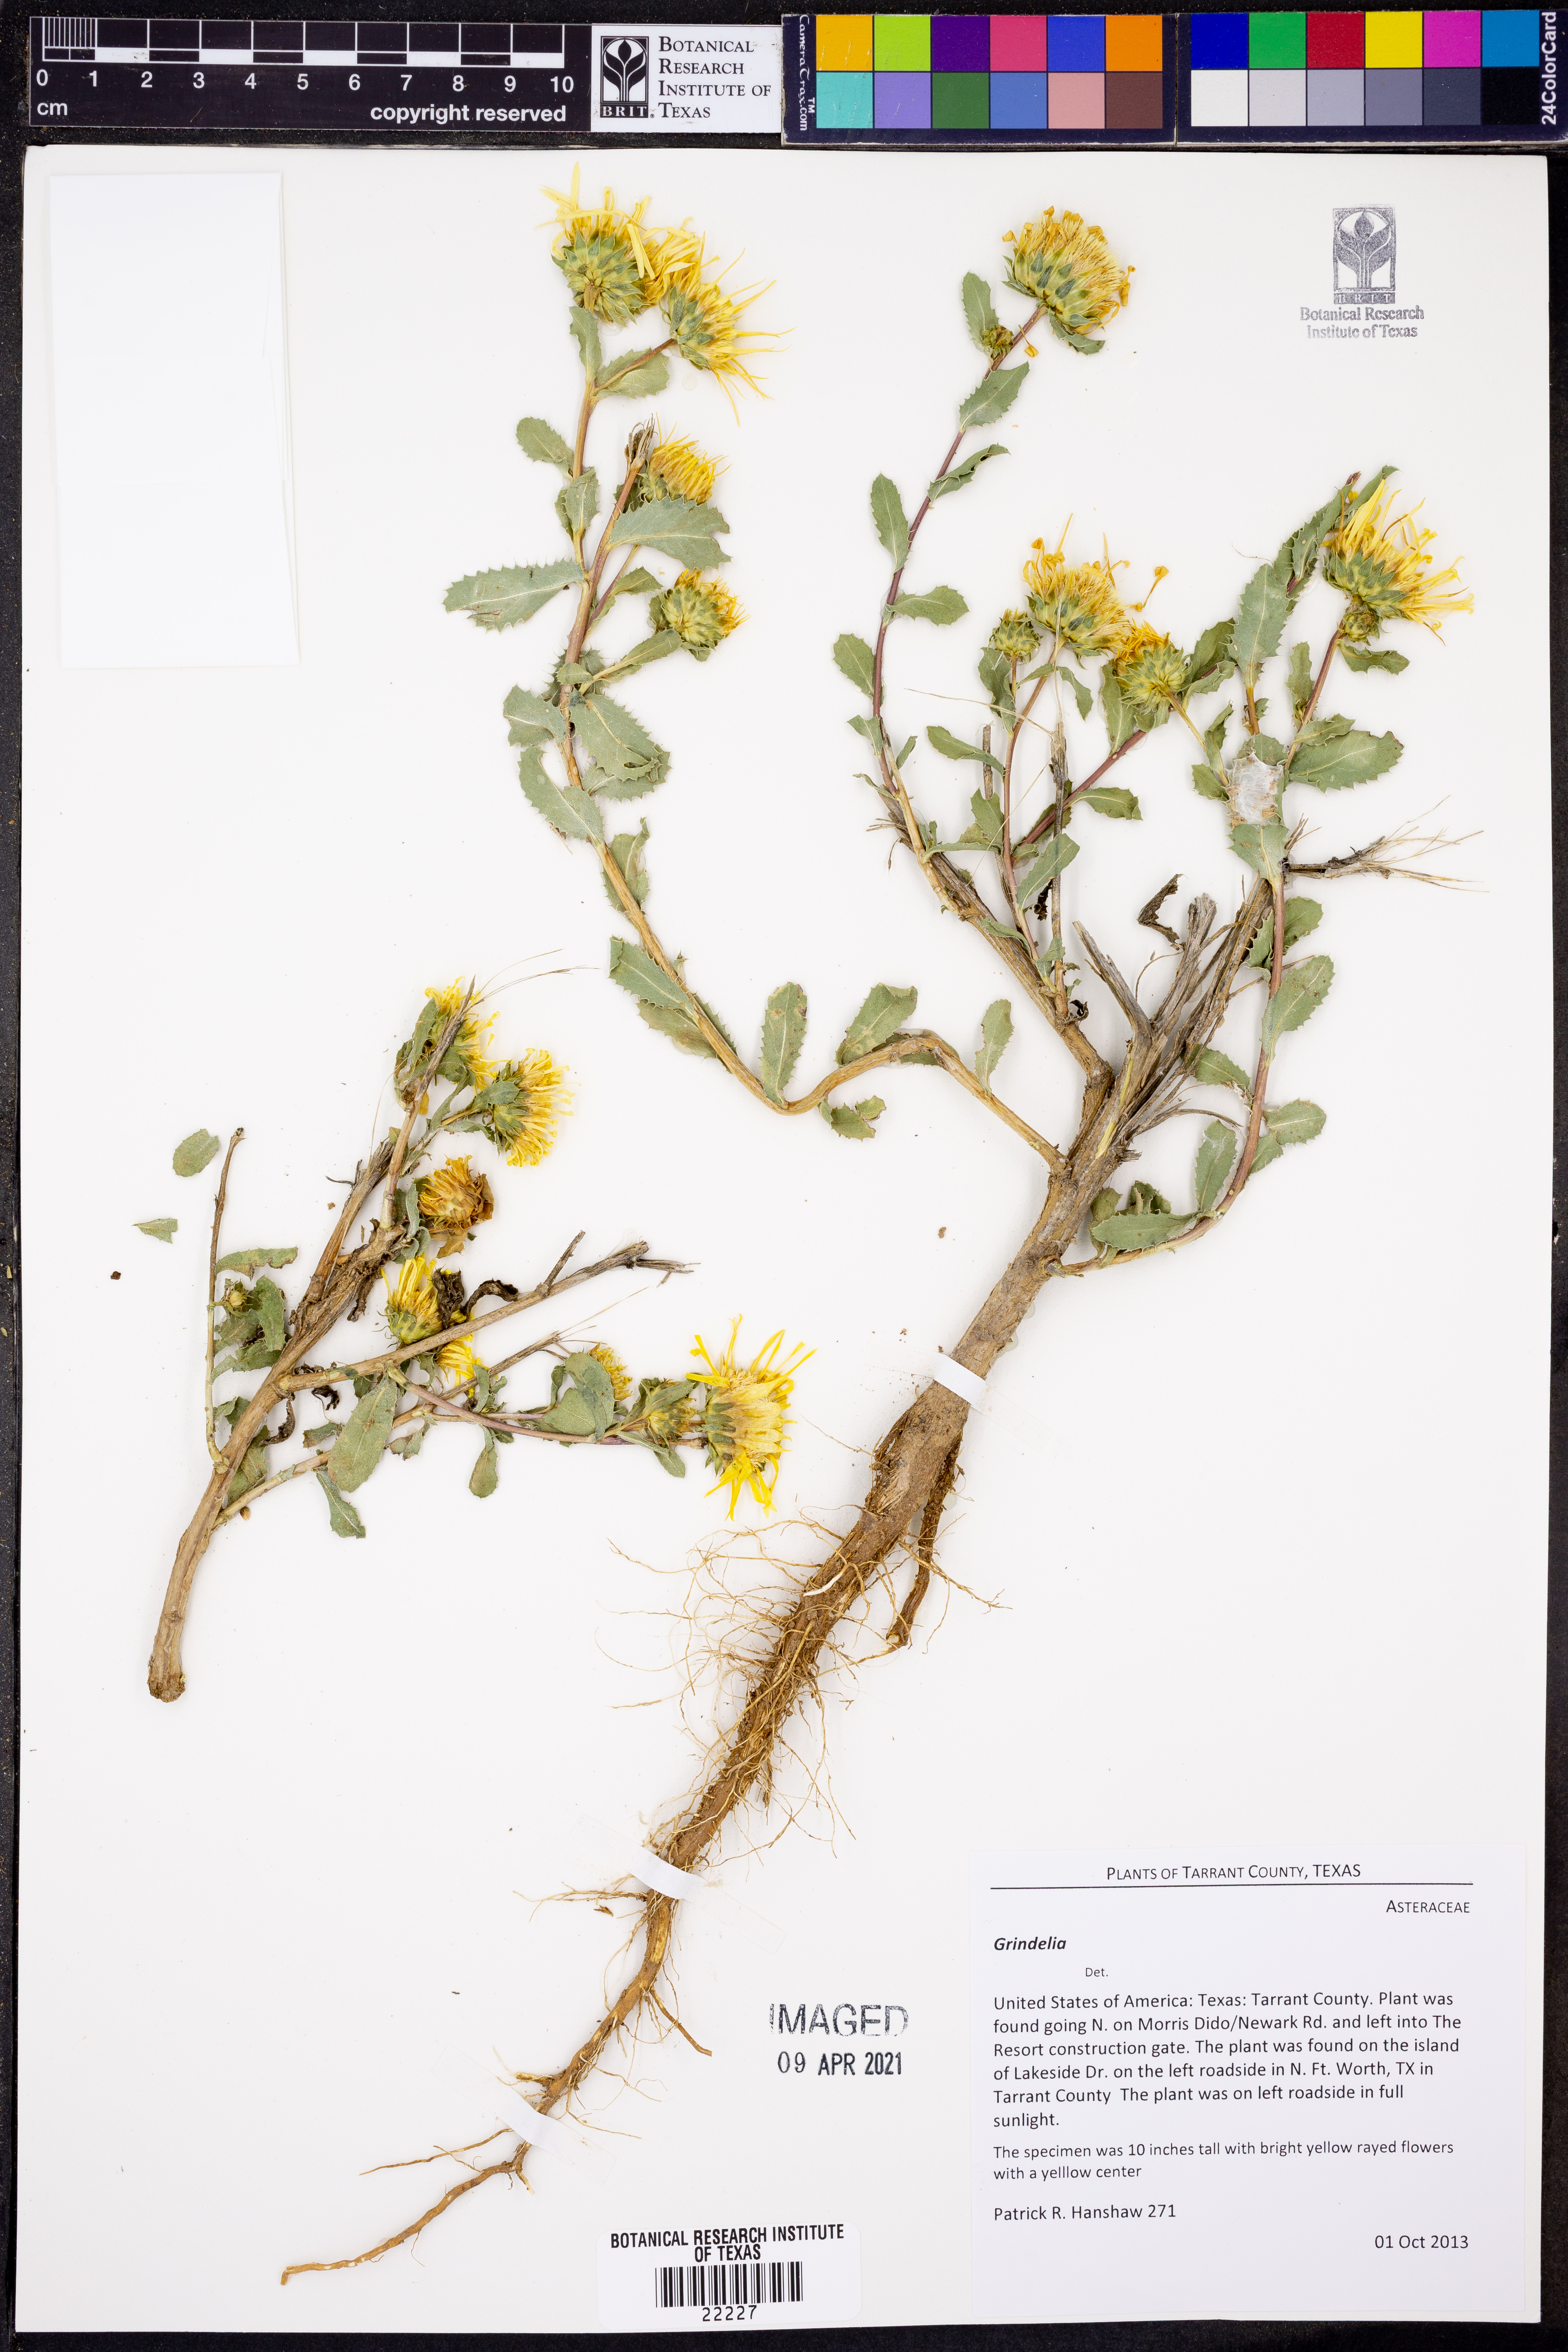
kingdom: Plantae
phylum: Tracheophyta
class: Magnoliopsida
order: Asterales
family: Asteraceae
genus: Grindelia
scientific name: Grindelia
